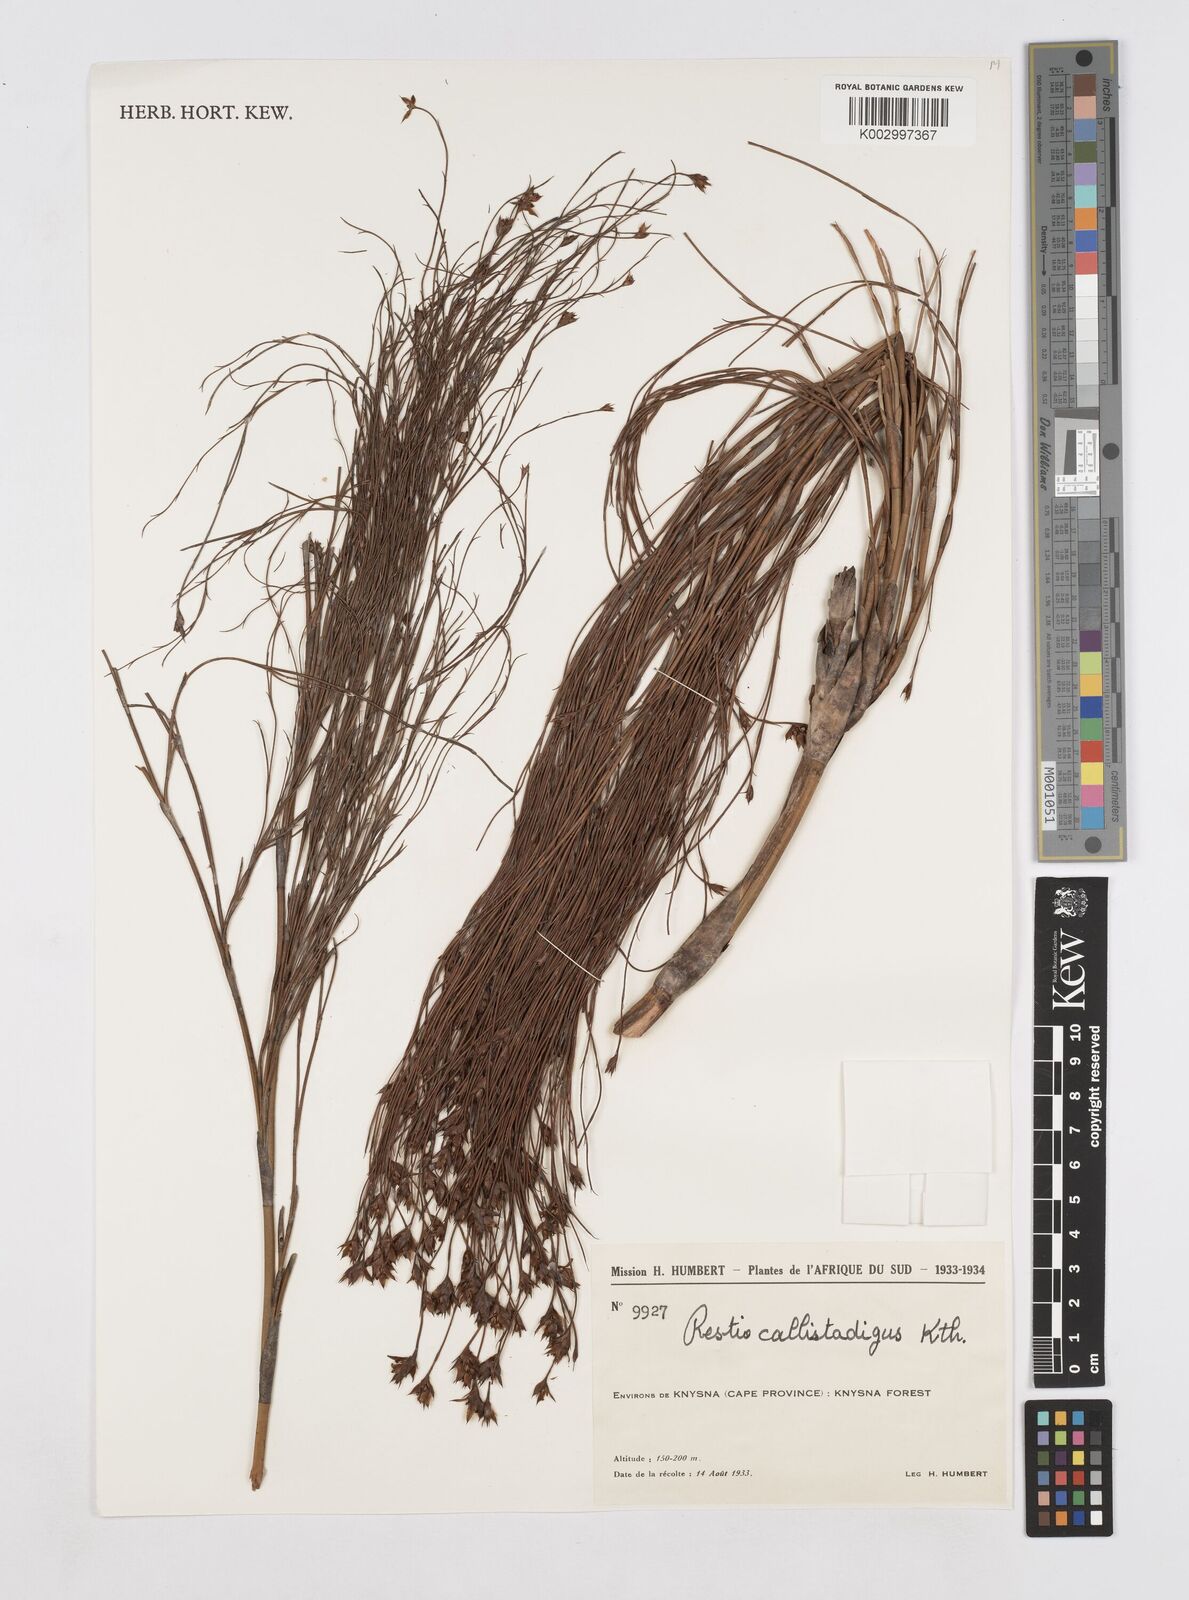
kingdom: Plantae
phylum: Tracheophyta
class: Liliopsida
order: Poales
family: Restionaceae
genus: Platycaulos
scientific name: Platycaulos callistachyus
